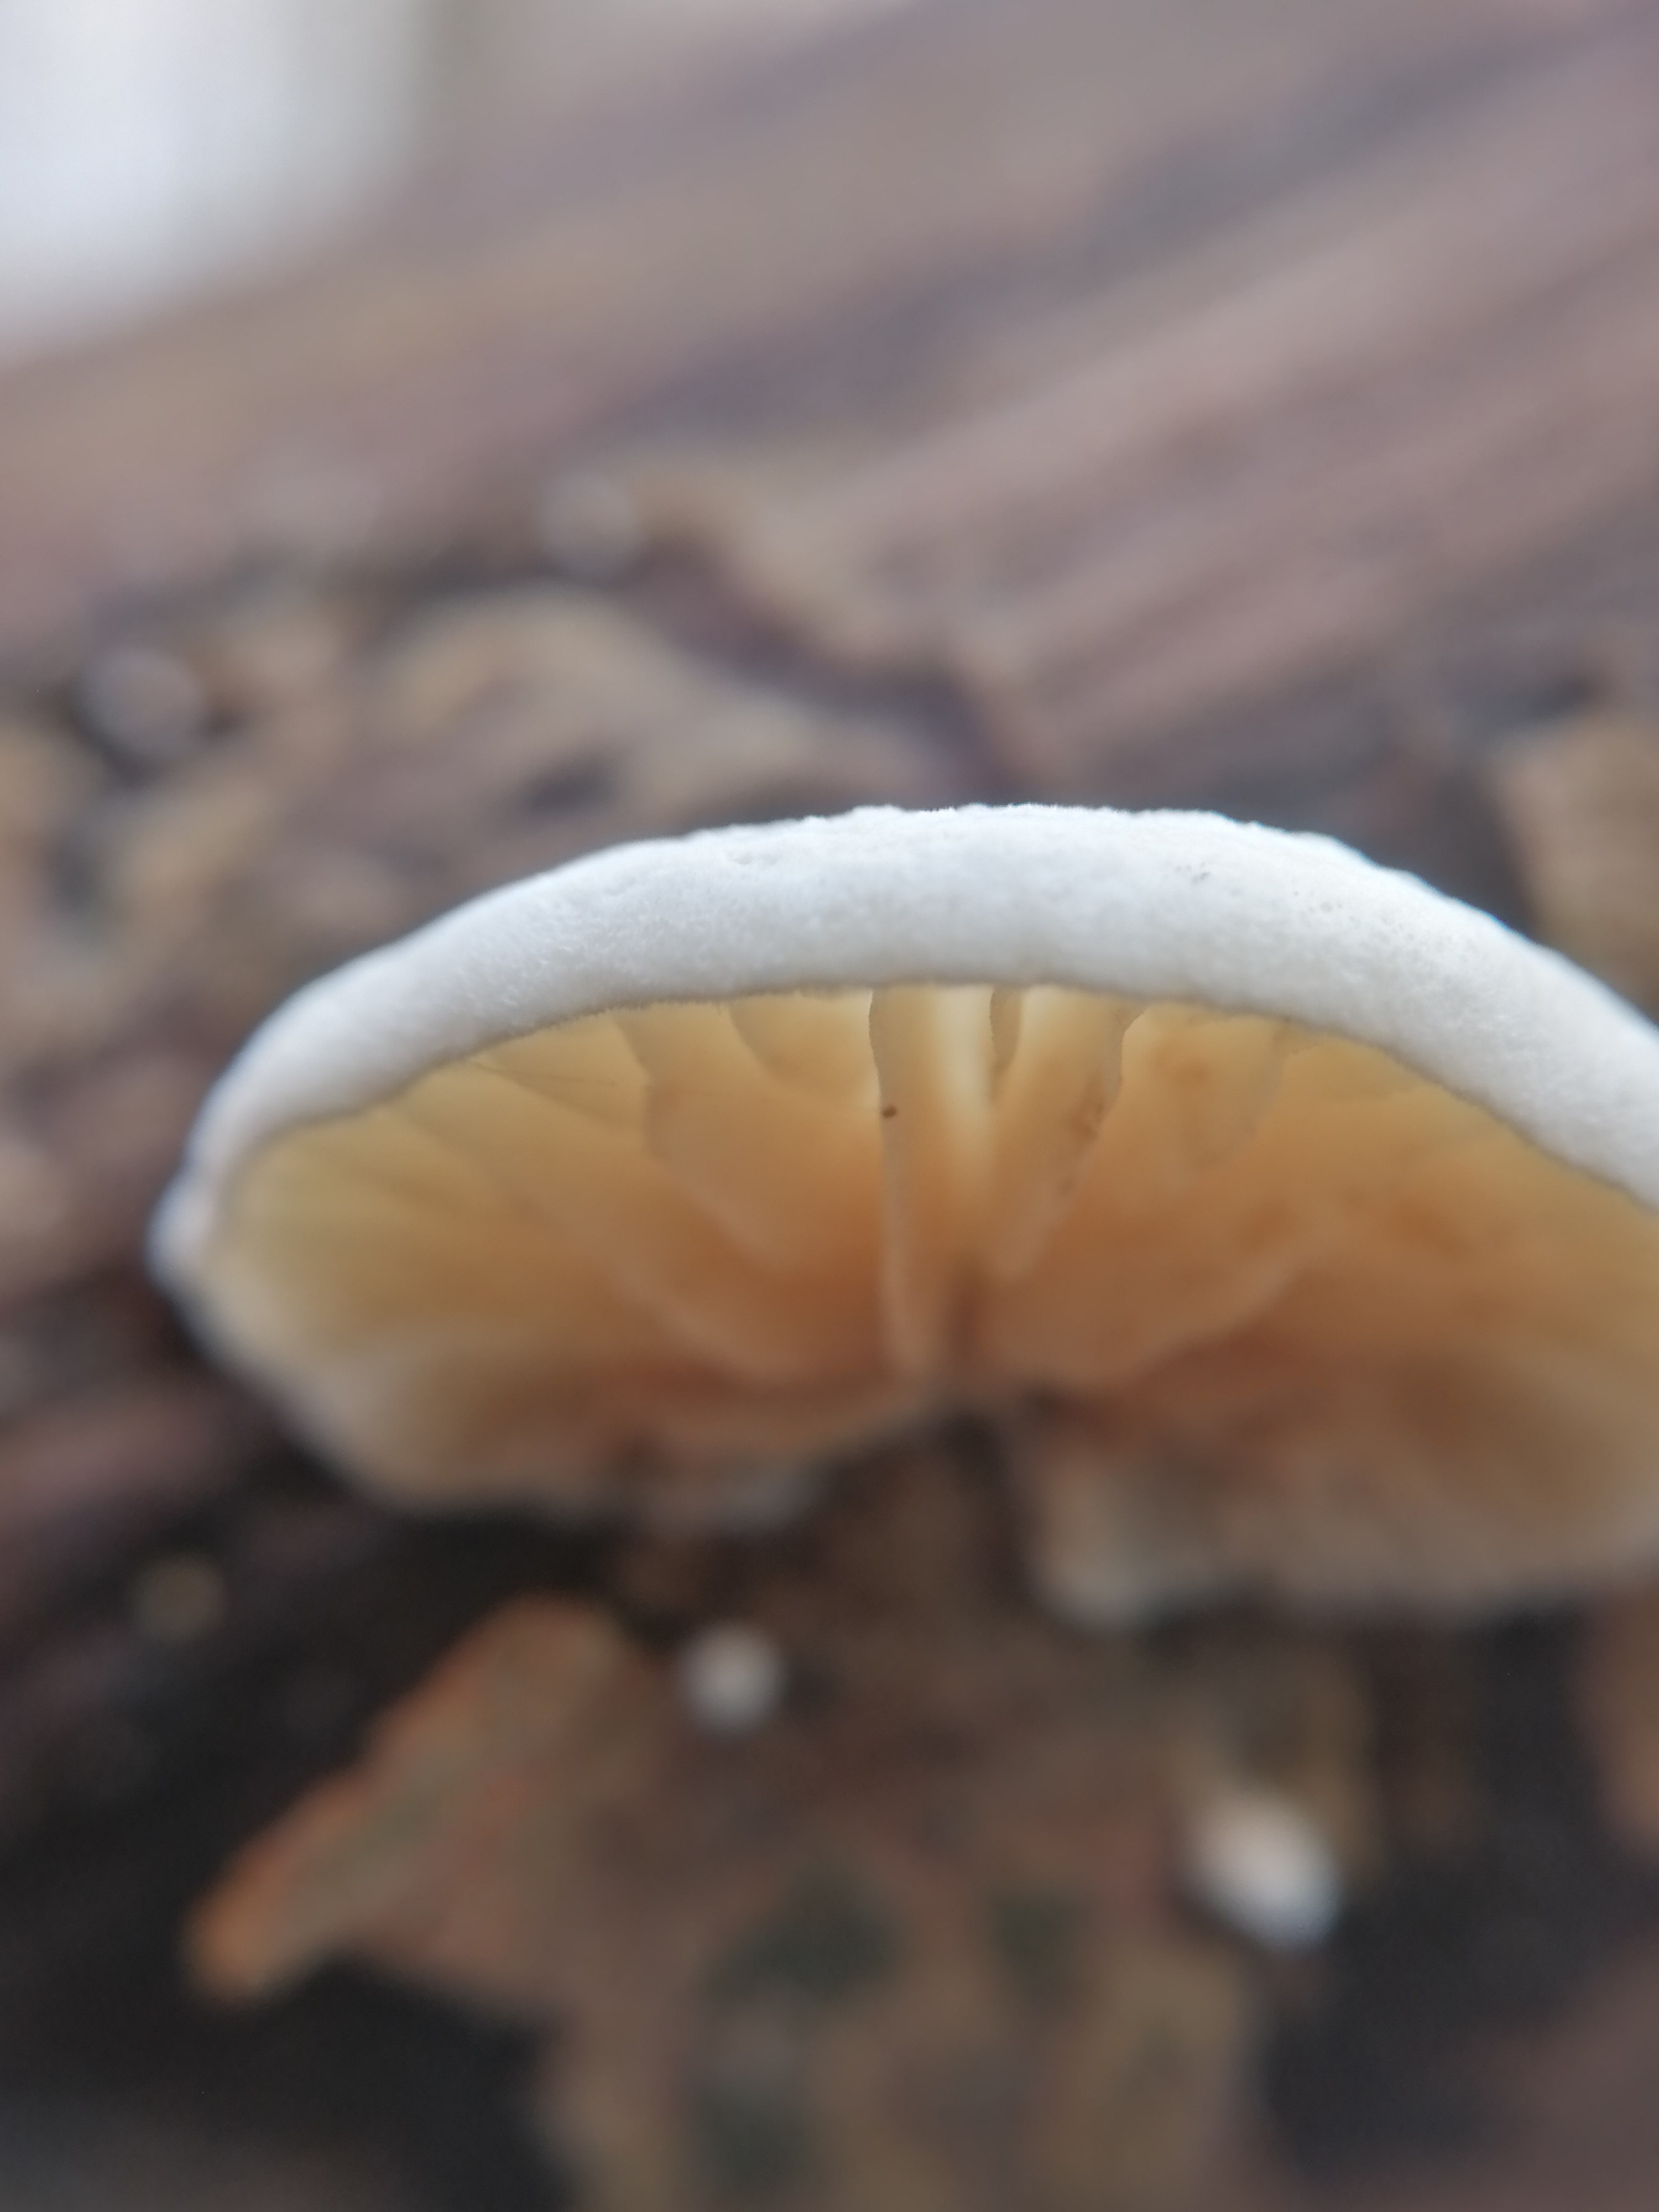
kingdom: Fungi
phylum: Basidiomycota
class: Agaricomycetes
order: Agaricales
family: Crepidotaceae
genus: Crepidotus
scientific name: Crepidotus
